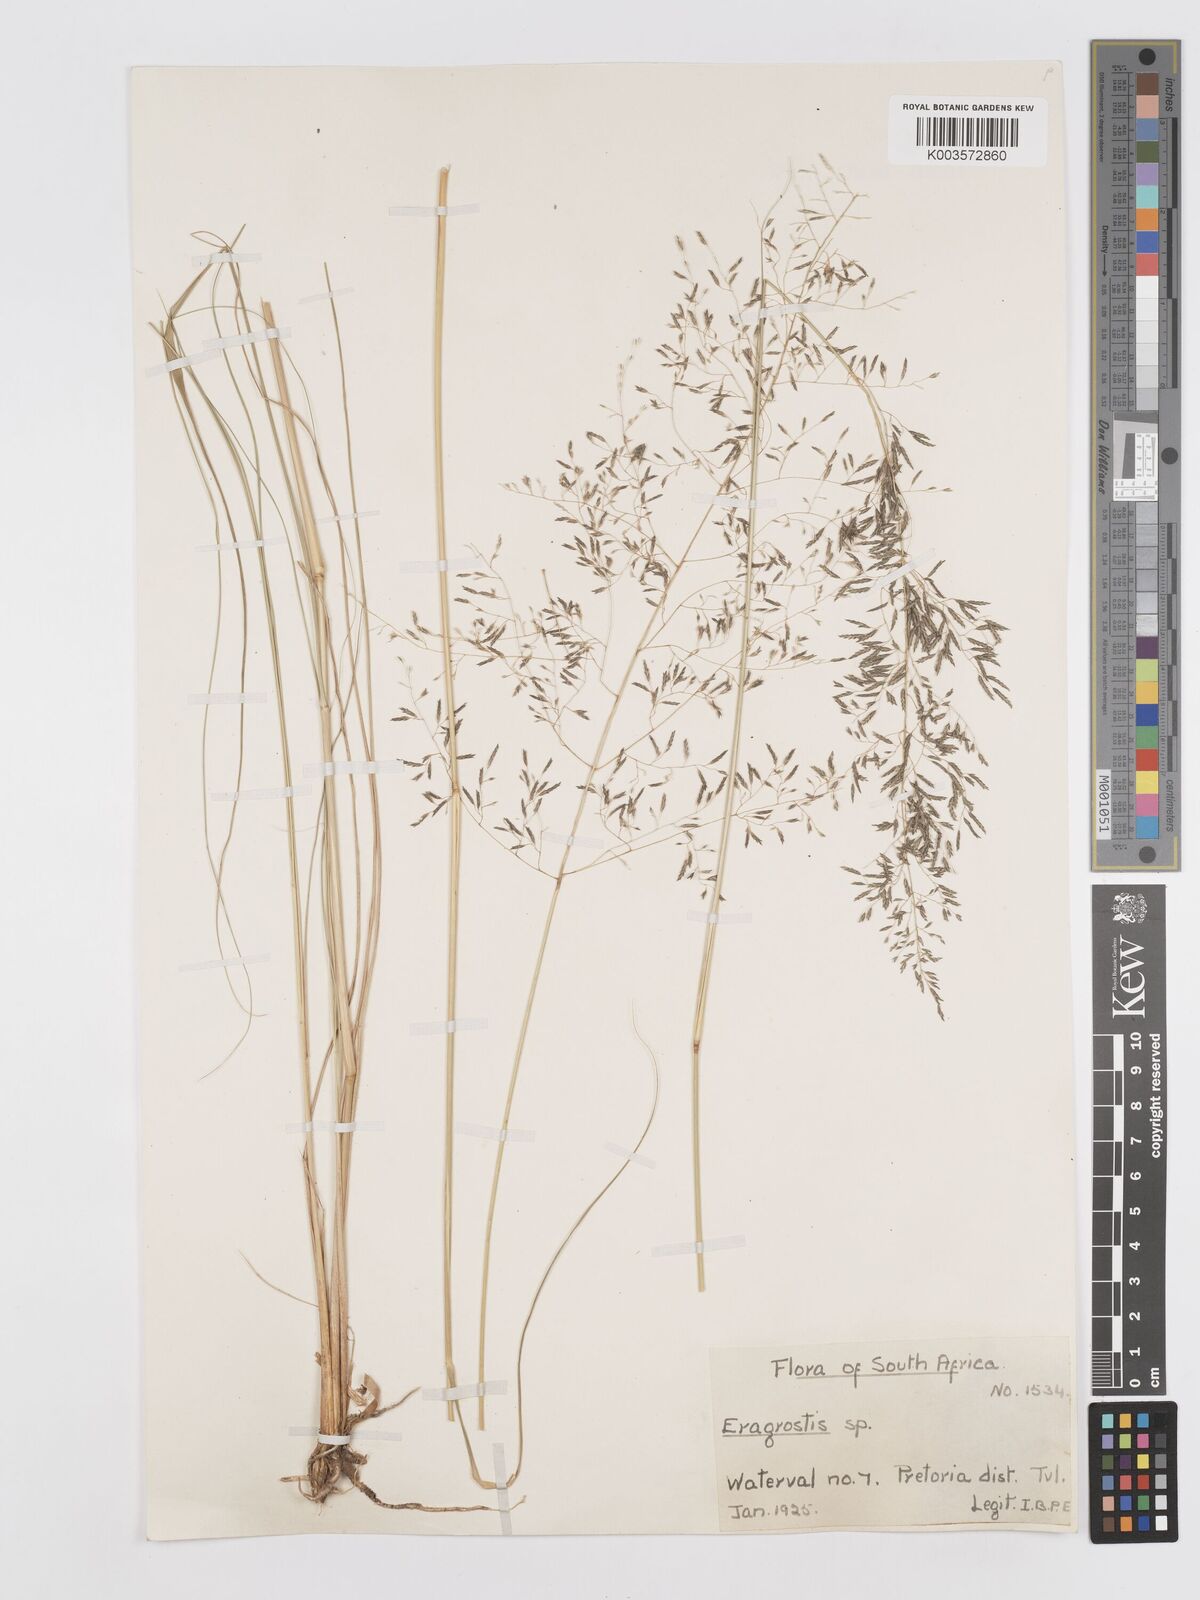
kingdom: Plantae
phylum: Tracheophyta
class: Liliopsida
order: Poales
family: Poaceae
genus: Eragrostis
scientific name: Eragrostis curvula
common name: African love-grass
